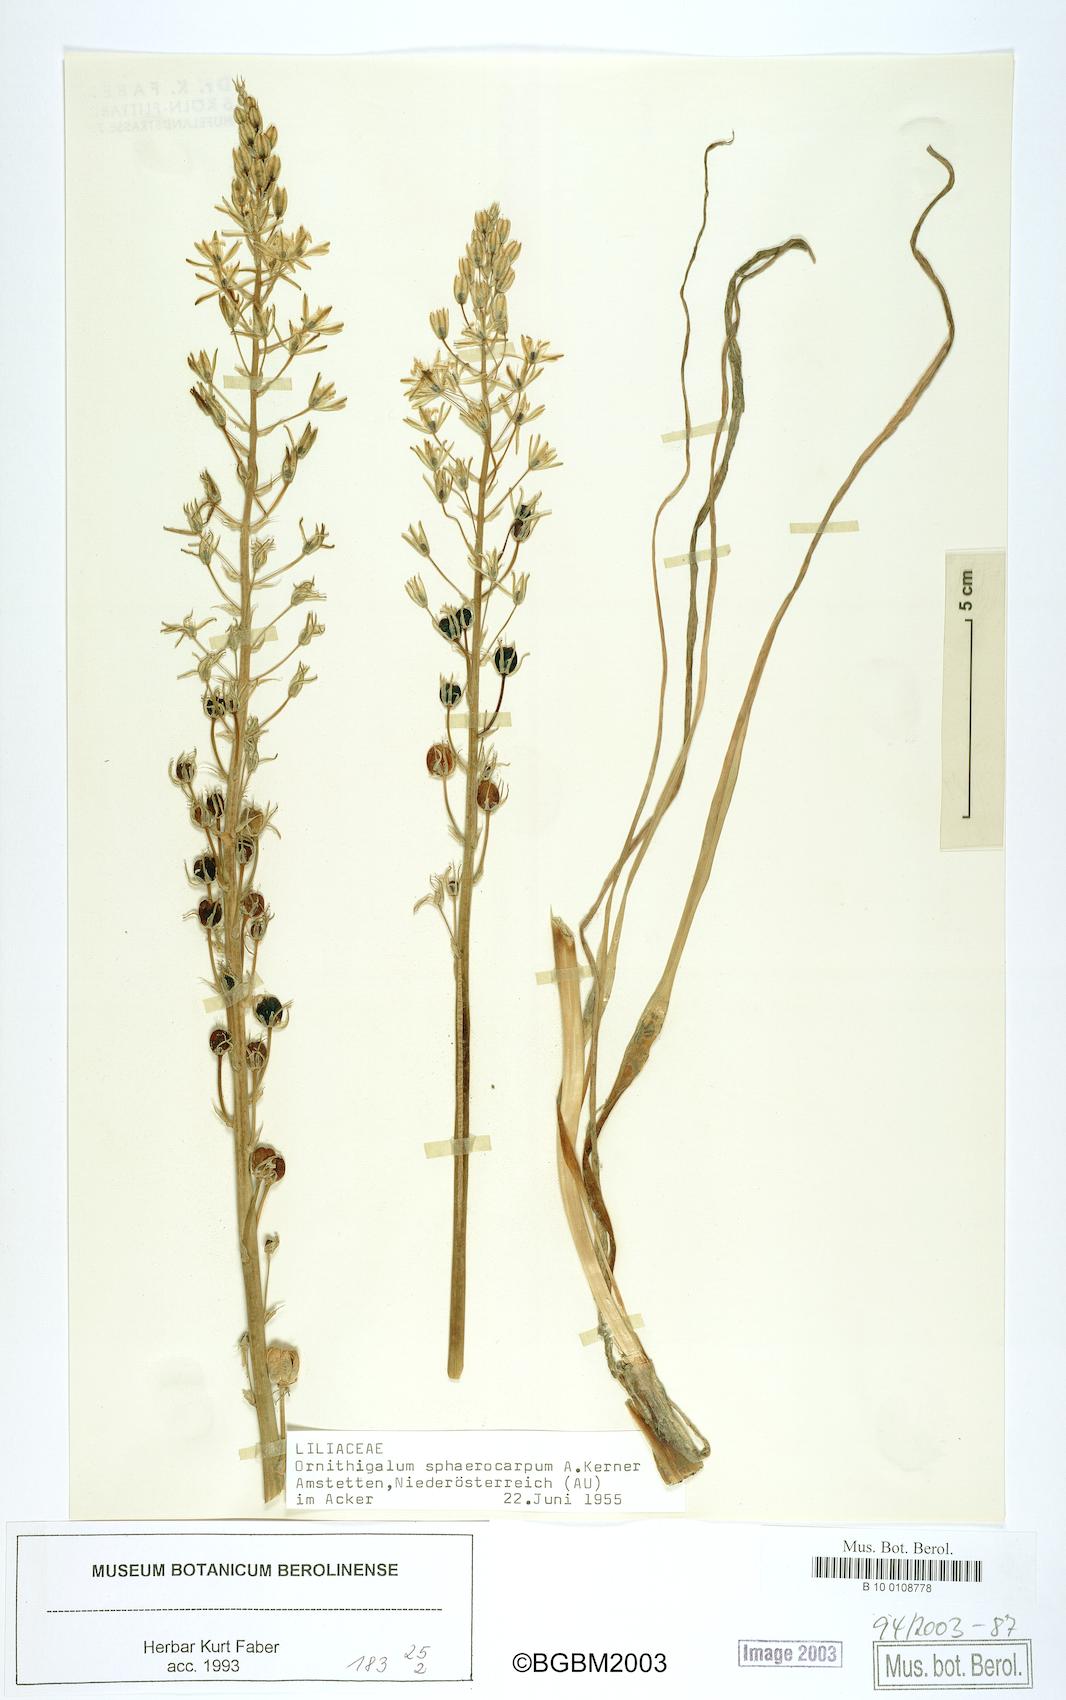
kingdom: Plantae
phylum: Tracheophyta
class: Liliopsida
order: Asparagales
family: Asparagaceae
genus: Ornithogalum
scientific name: Ornithogalum sphaerocarpum
